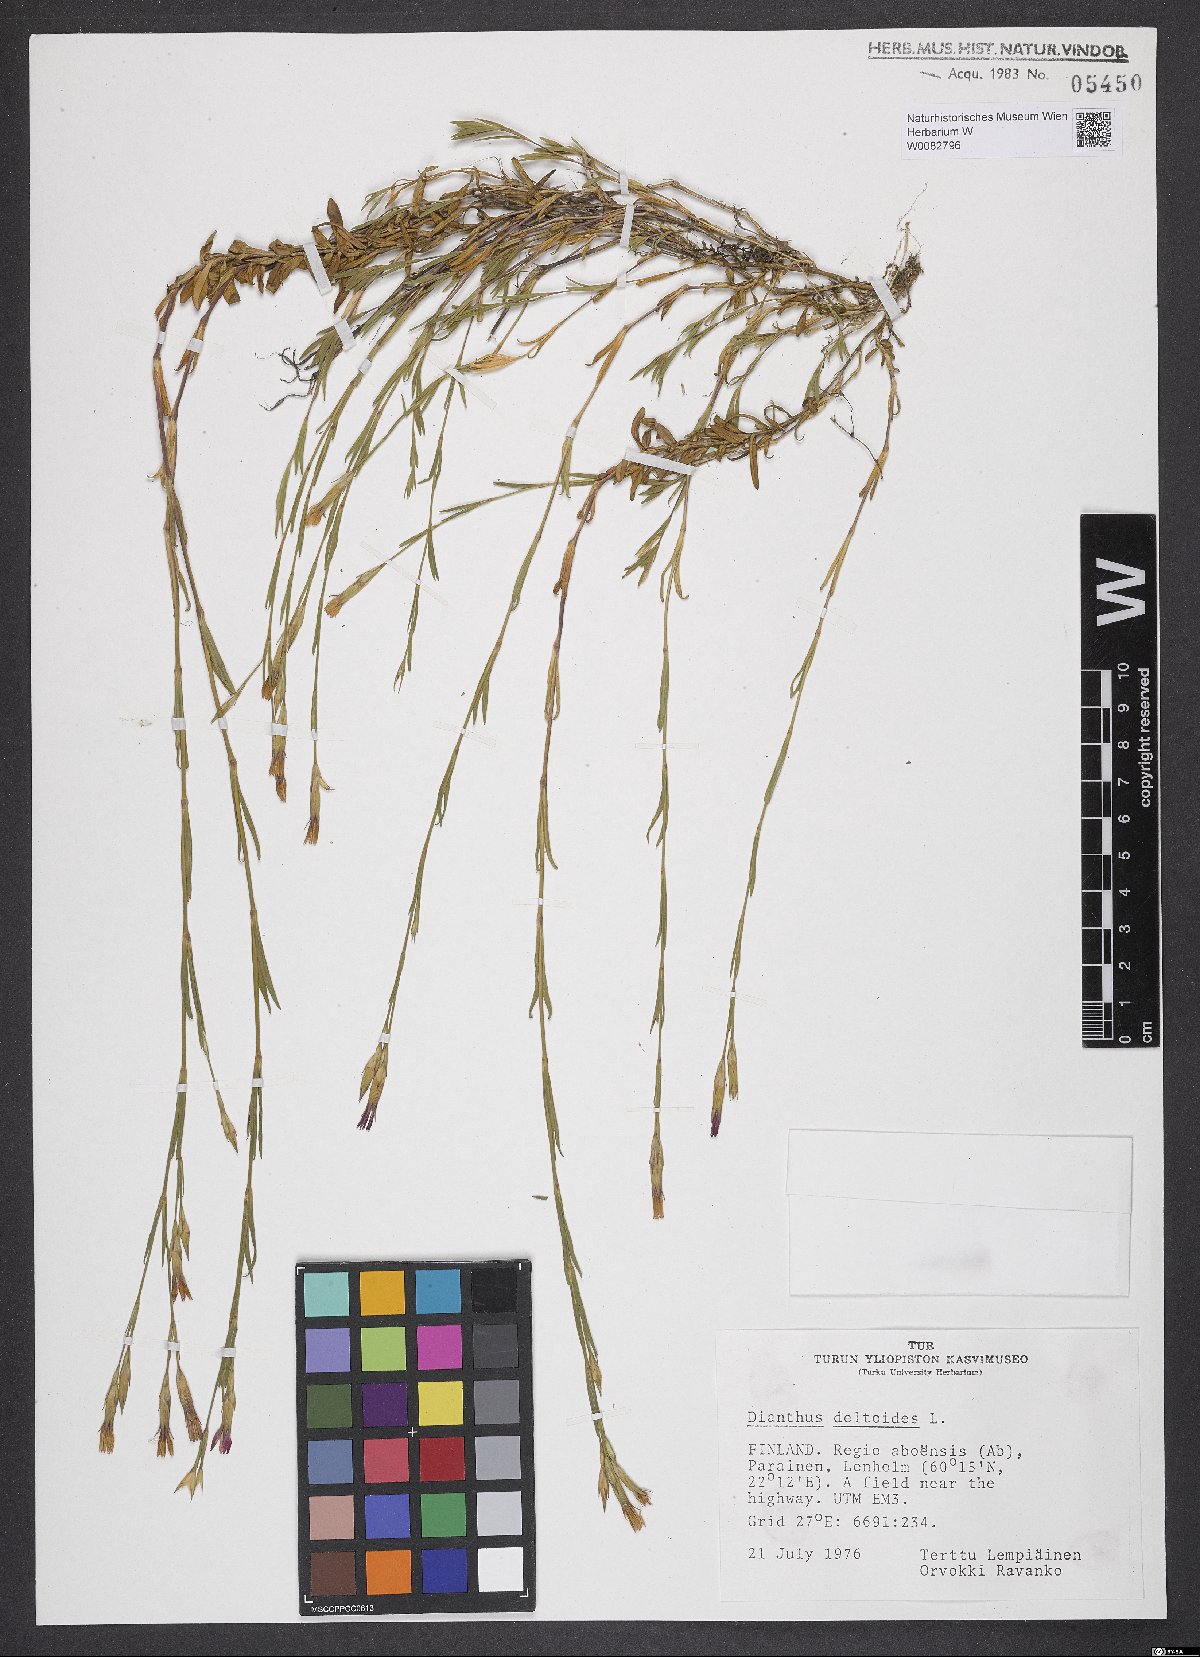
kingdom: Plantae
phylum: Tracheophyta
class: Magnoliopsida
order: Caryophyllales
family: Caryophyllaceae
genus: Dianthus
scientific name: Dianthus deltoides
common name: Maiden pink
